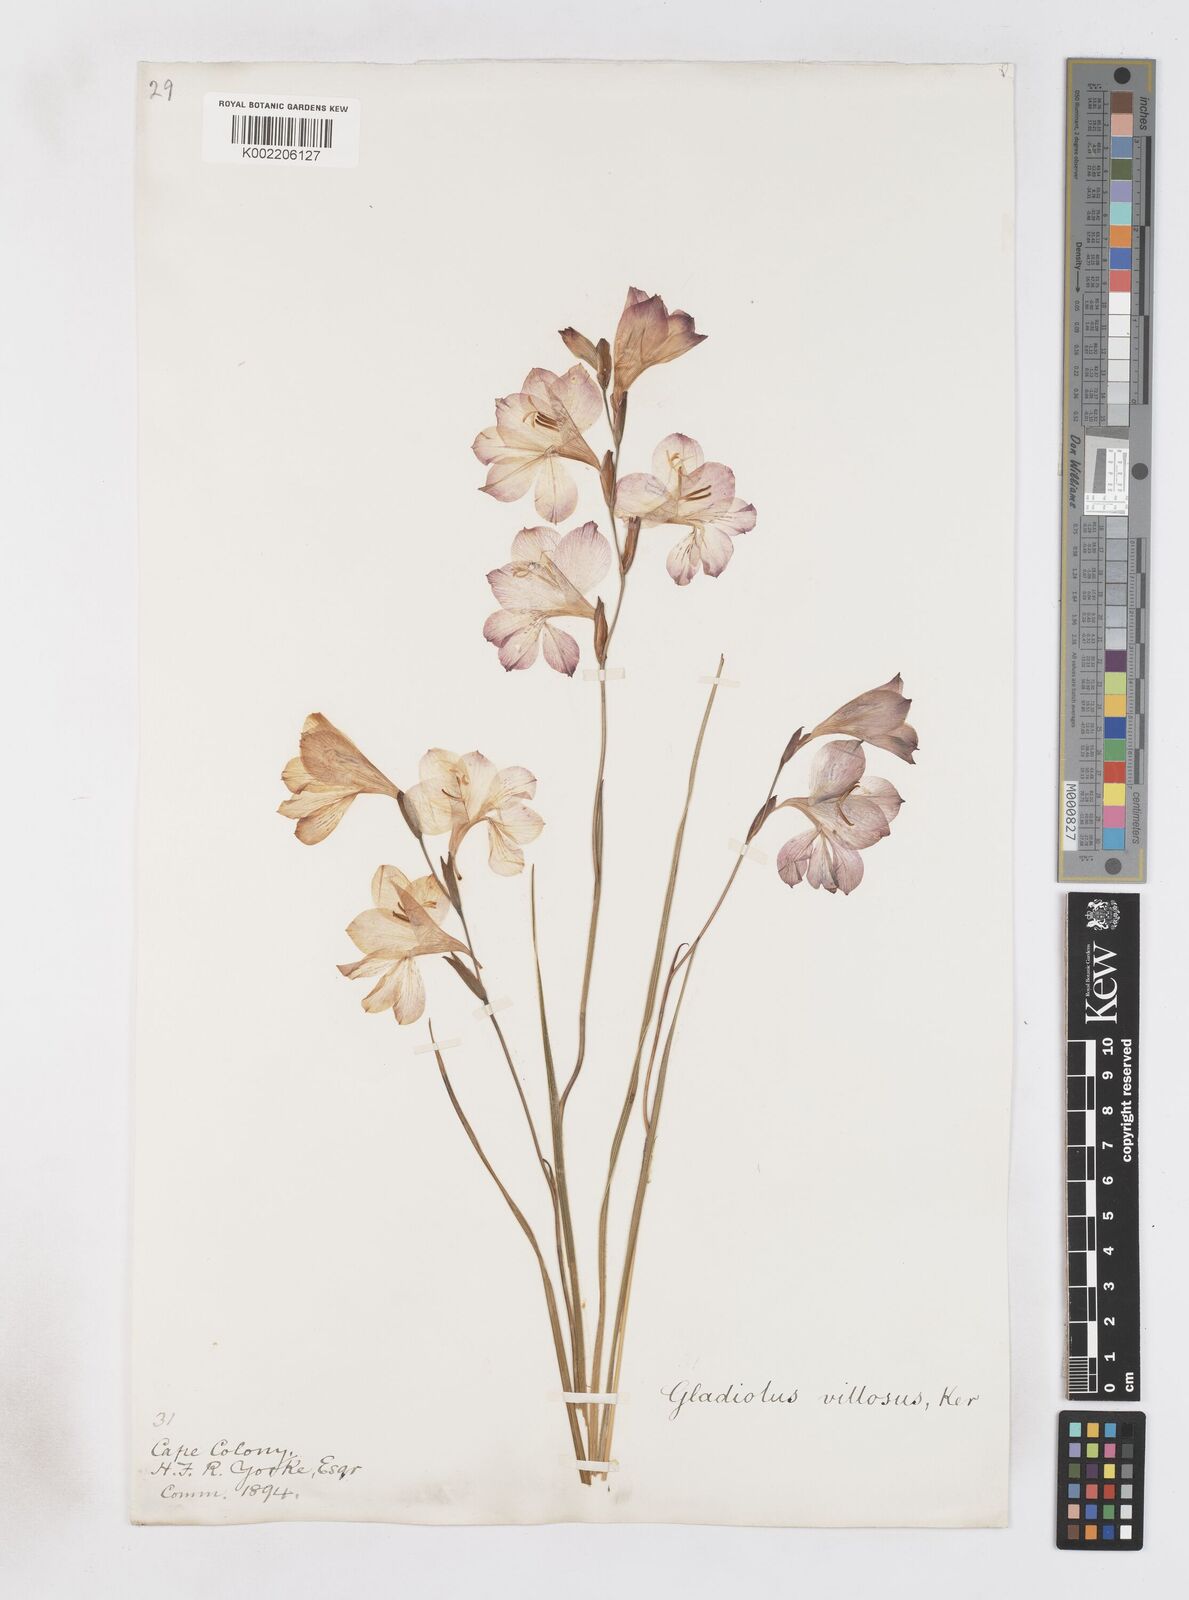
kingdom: Plantae
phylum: Tracheophyta
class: Liliopsida
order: Asparagales
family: Iridaceae
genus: Gladiolus
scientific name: Gladiolus hirsutus
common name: Small pink afrikaner
